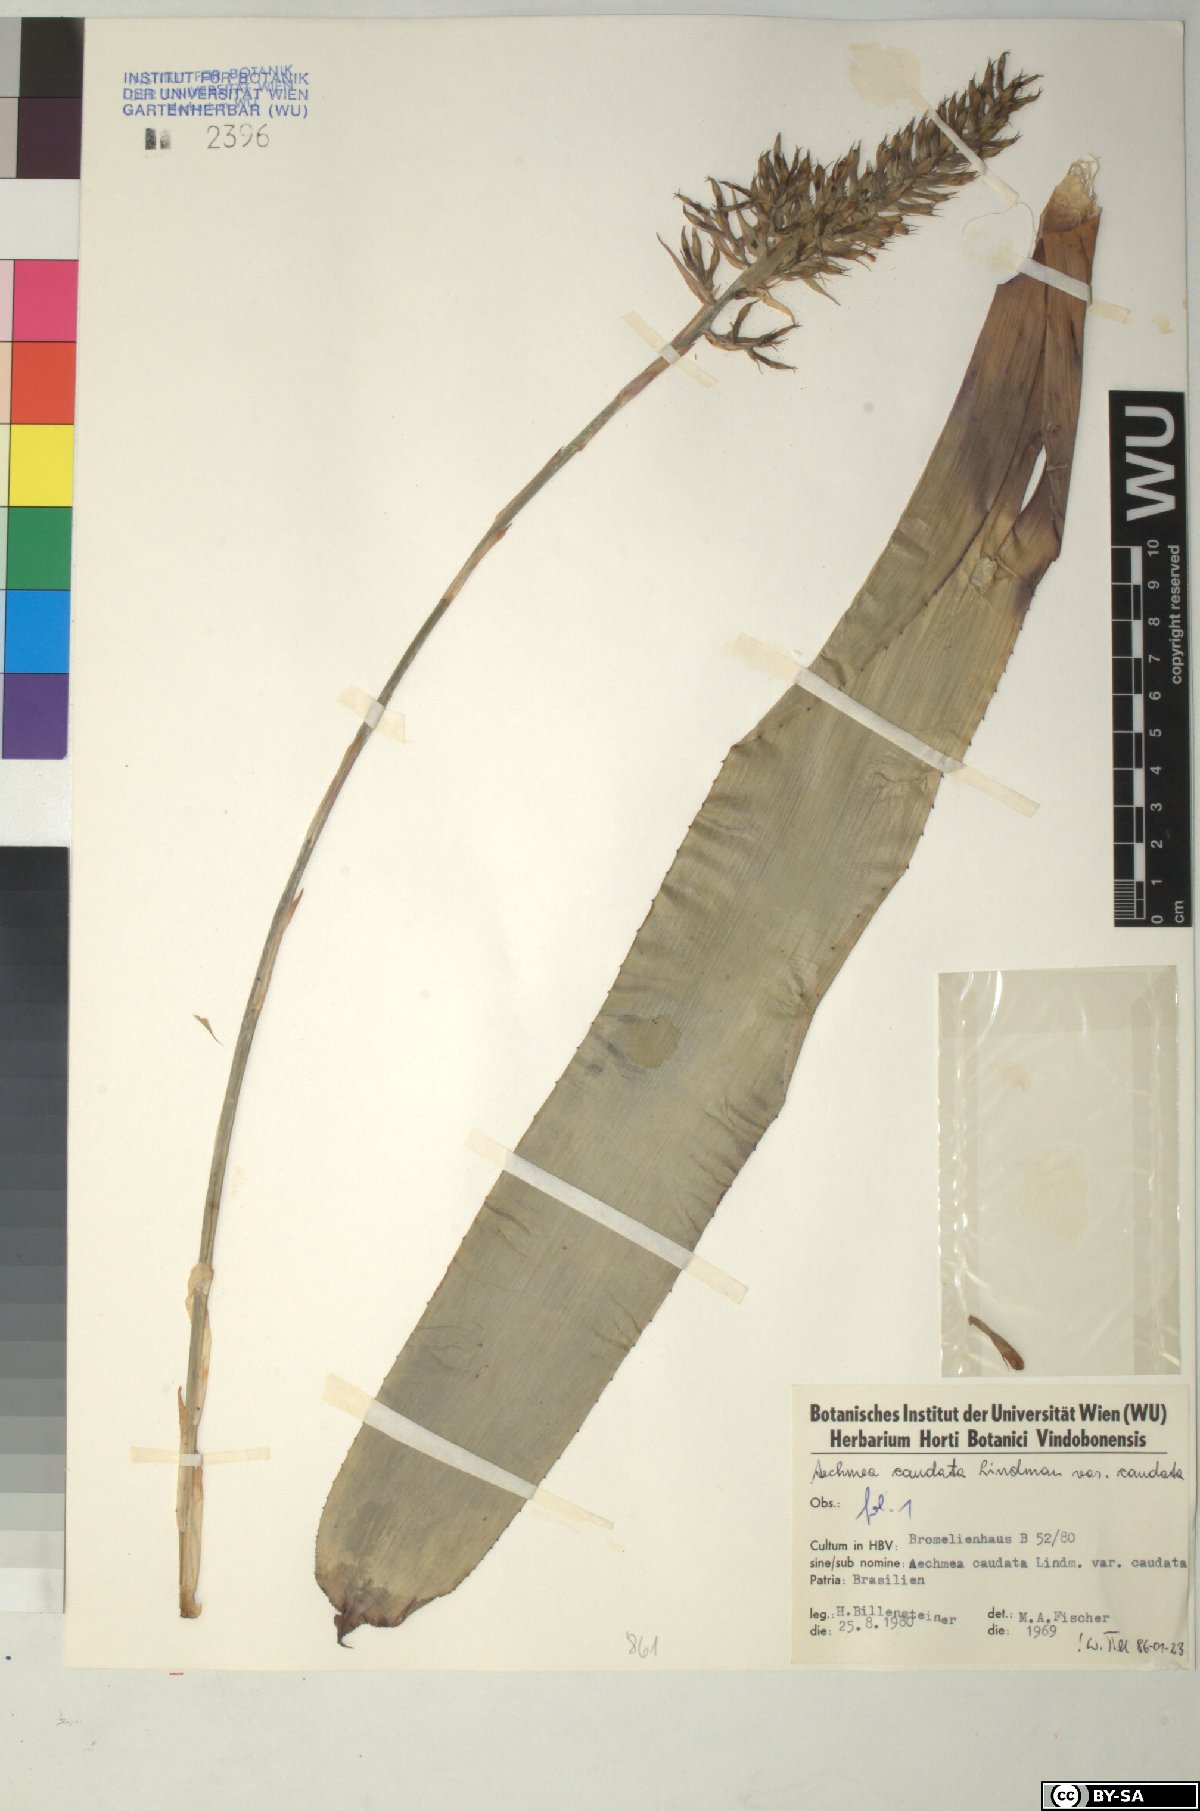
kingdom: Plantae
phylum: Tracheophyta
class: Liliopsida
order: Poales
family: Bromeliaceae
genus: Aechmea
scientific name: Aechmea caudata
